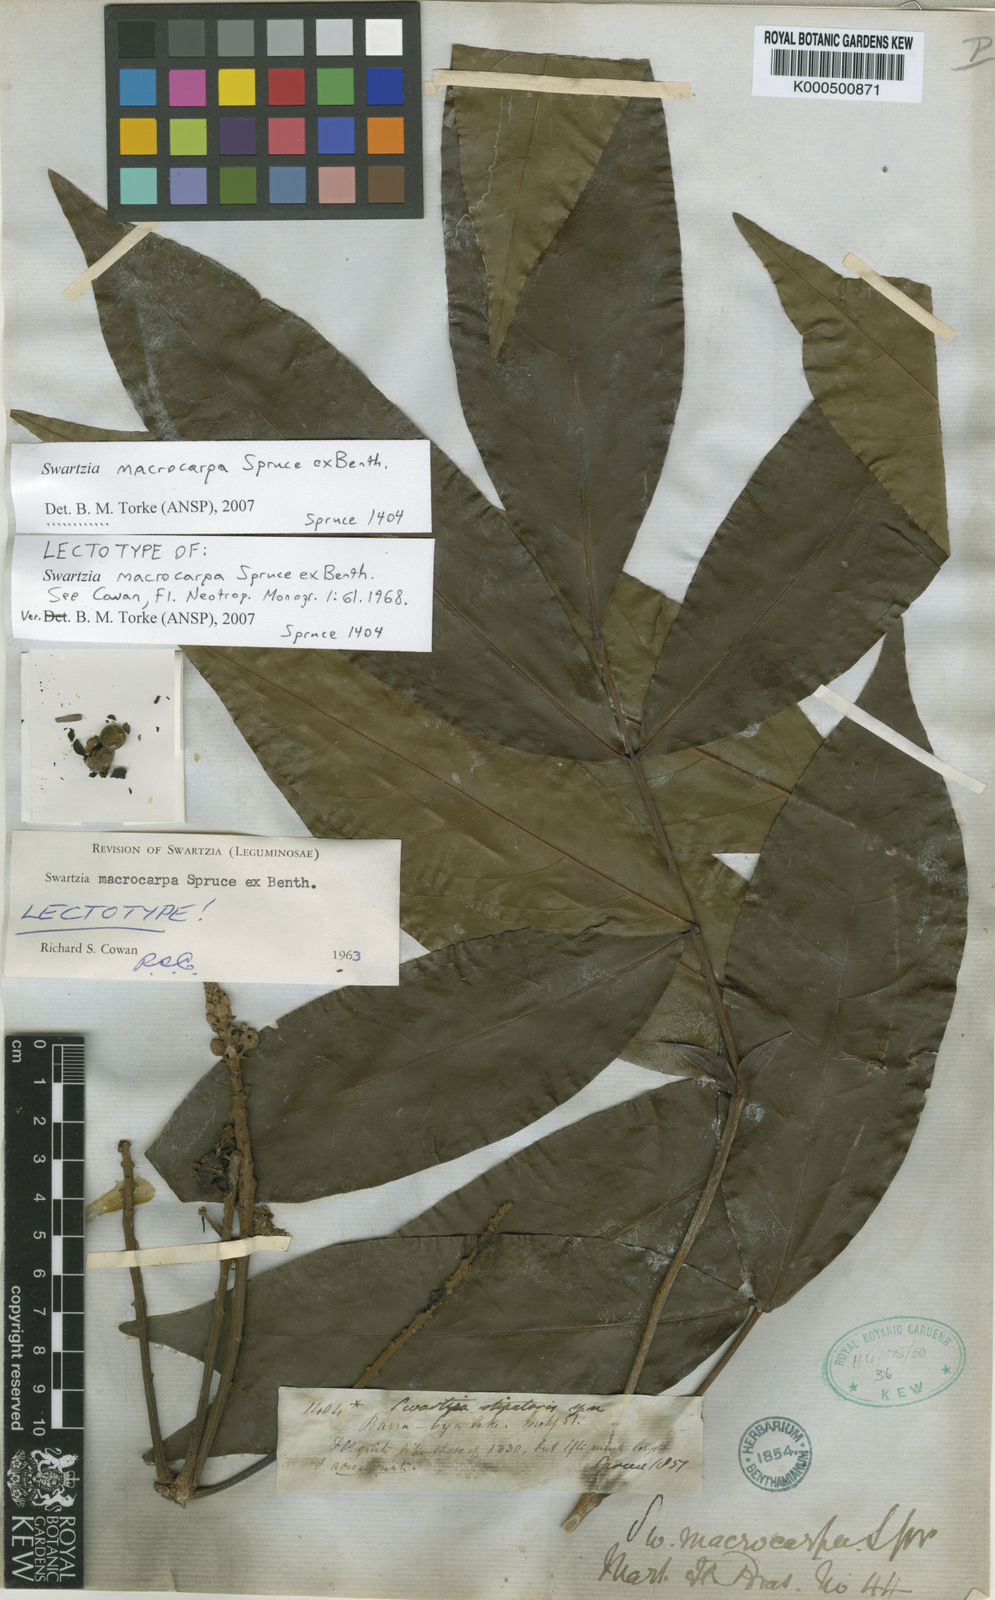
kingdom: Plantae
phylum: Tracheophyta
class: Magnoliopsida
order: Fabales
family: Fabaceae
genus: Swartzia
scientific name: Swartzia macrocarpa
